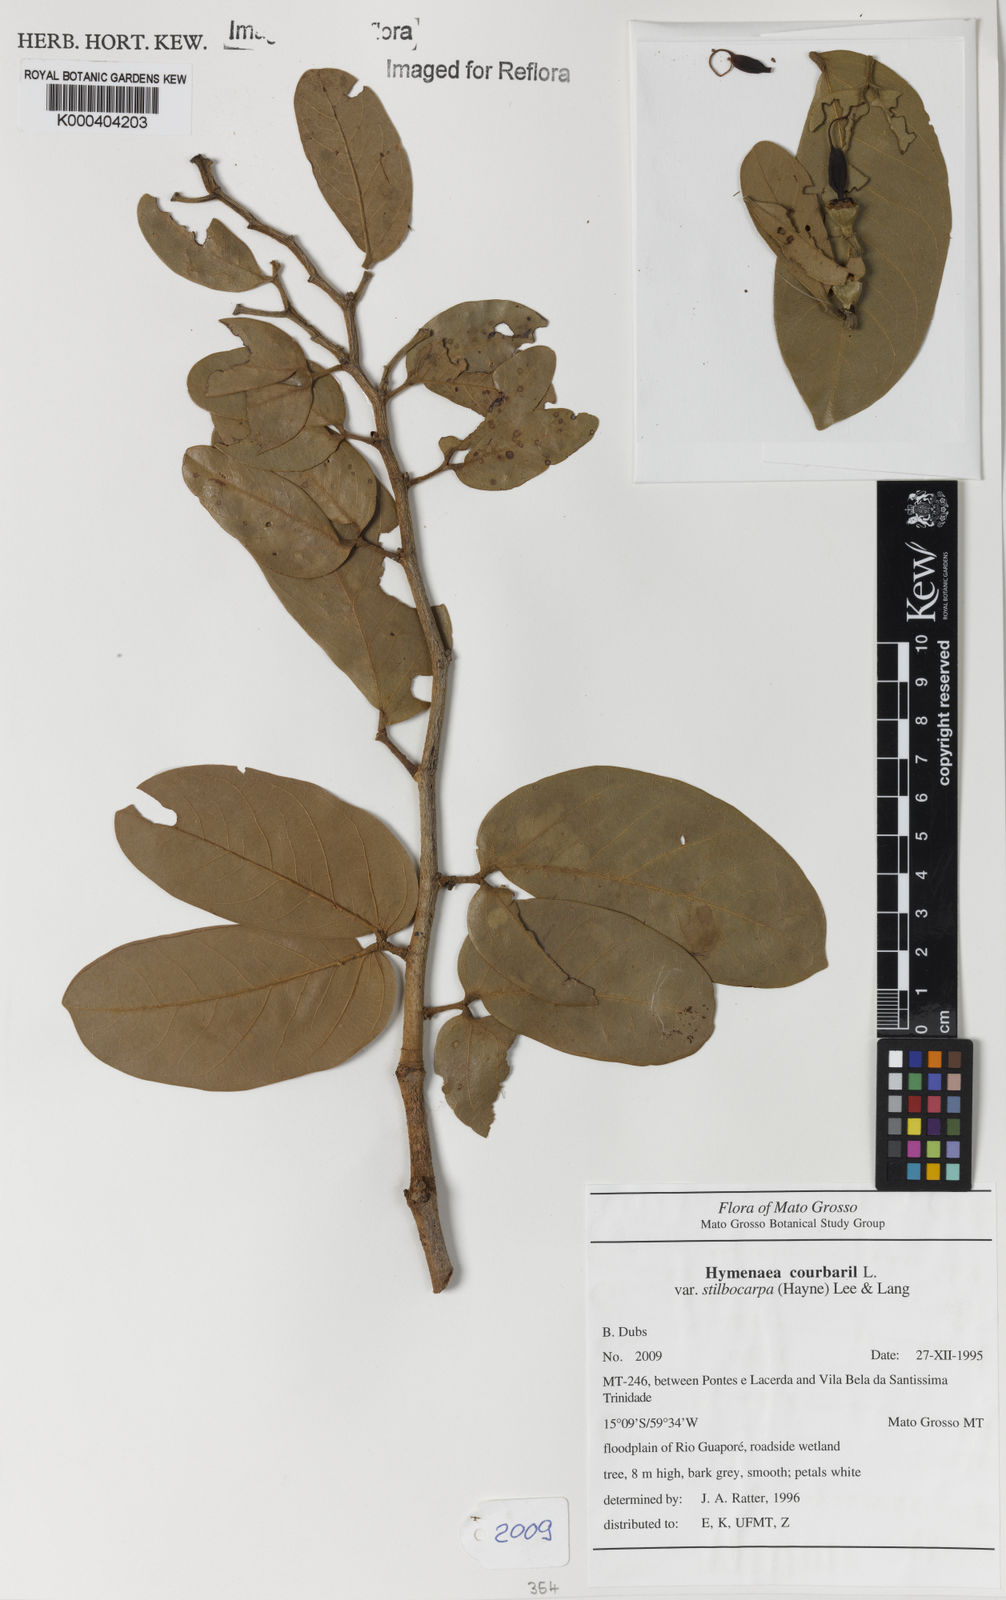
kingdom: Plantae
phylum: Tracheophyta
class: Magnoliopsida
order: Fabales
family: Fabaceae
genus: Hymenaea
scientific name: Hymenaea courbaril
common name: Brazilian copal
